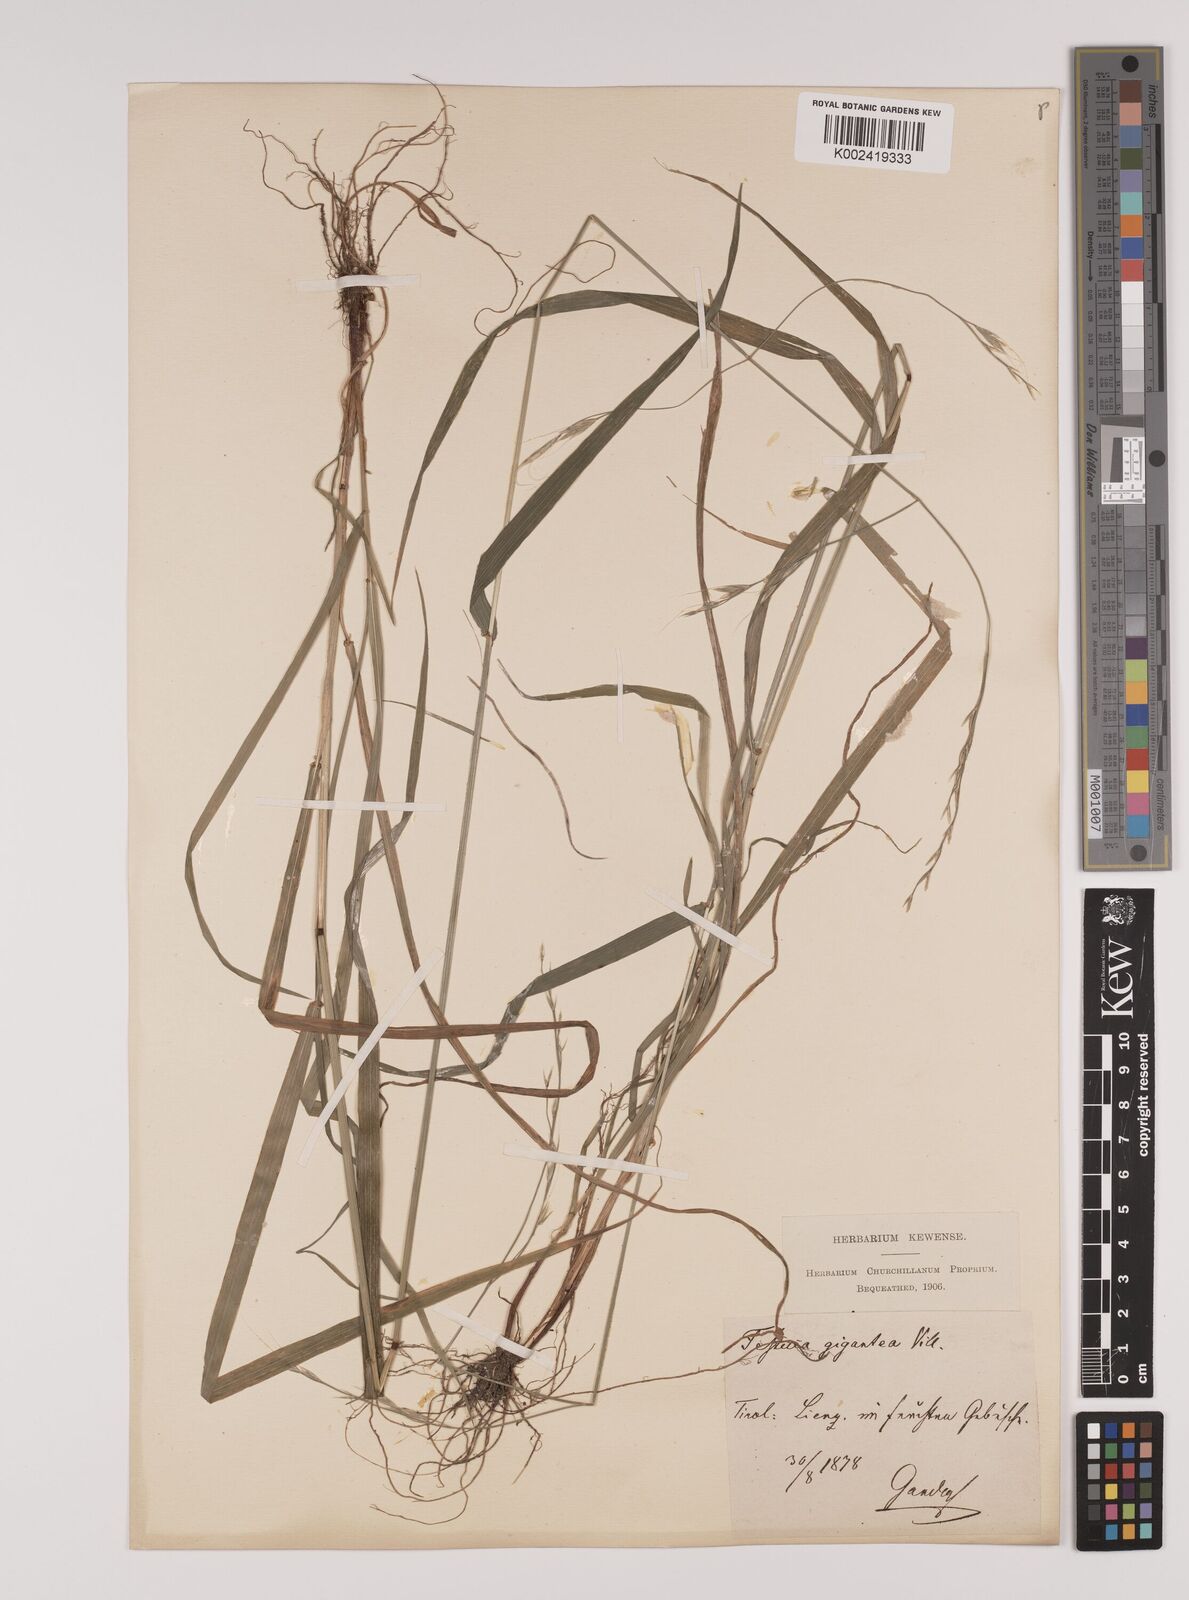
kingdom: Plantae
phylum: Tracheophyta
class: Liliopsida
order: Poales
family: Poaceae
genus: Lolium
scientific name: Lolium giganteum
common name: Giant fescue
